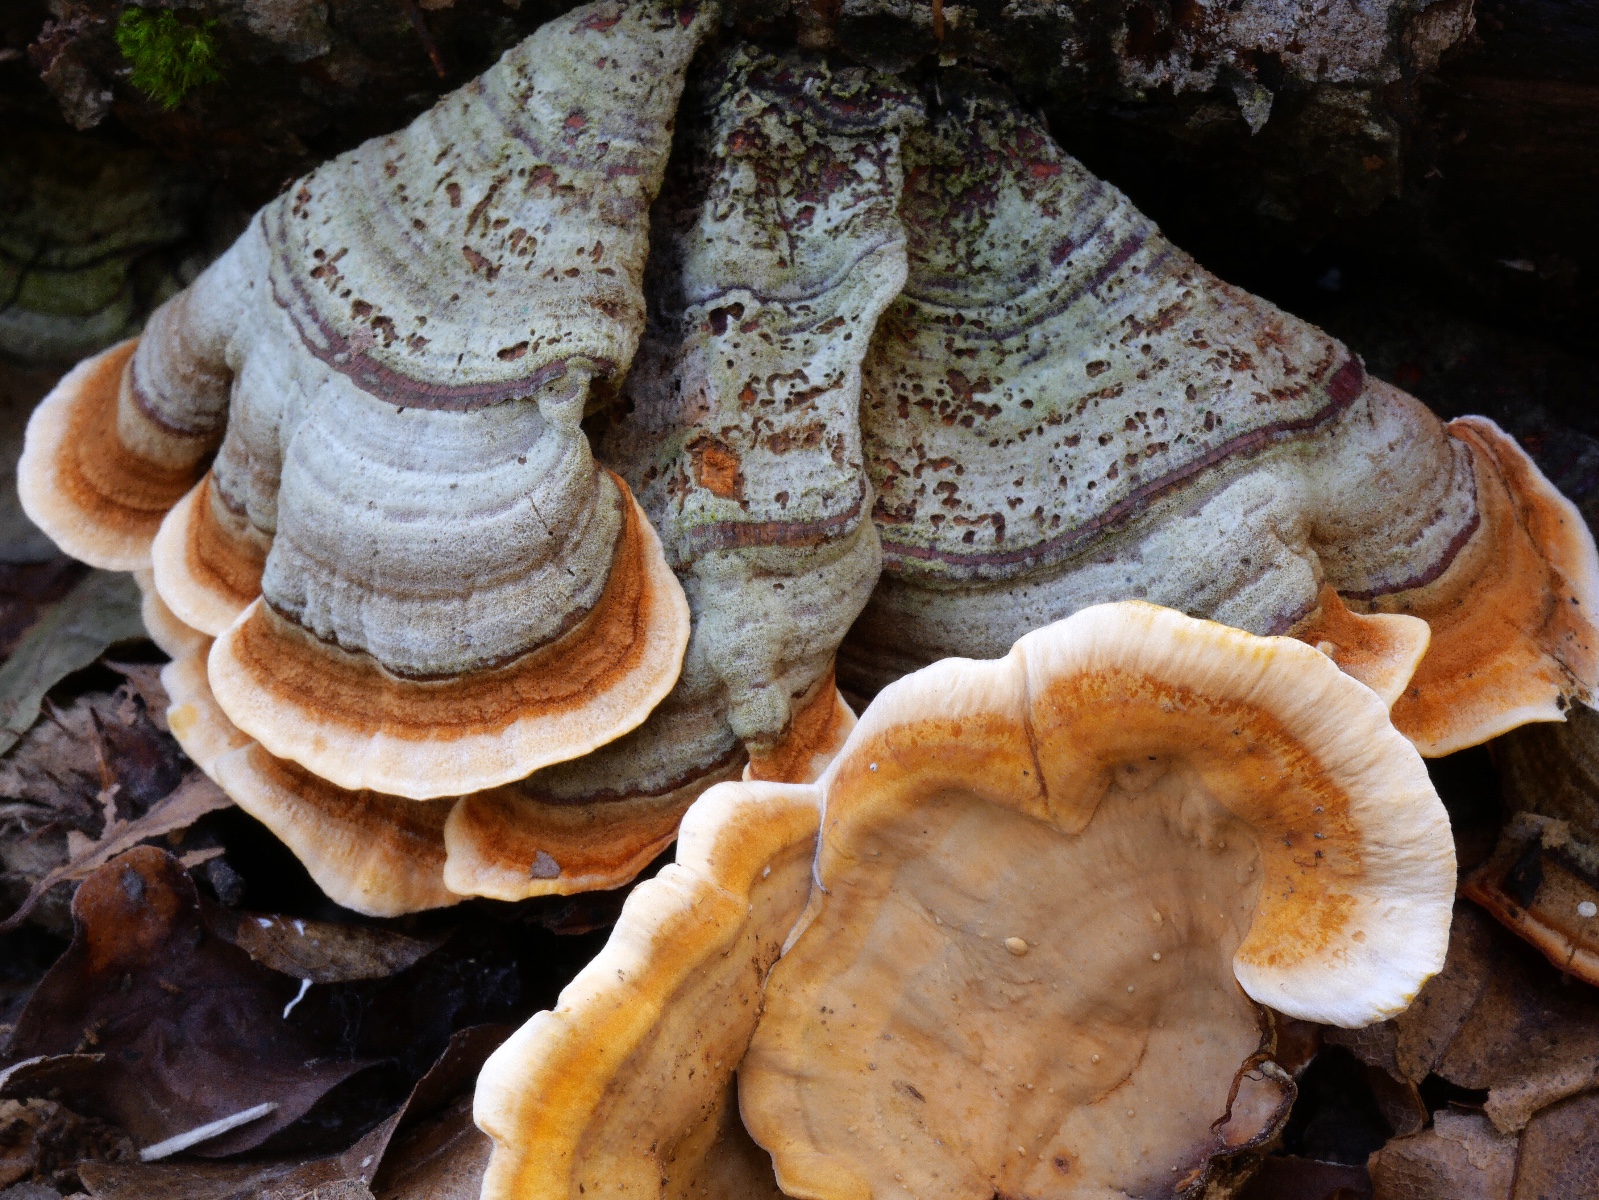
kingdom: Fungi
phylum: Basidiomycota
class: Agaricomycetes
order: Russulales
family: Stereaceae
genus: Stereum
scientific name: Stereum subtomentosum
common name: smuk lædersvamp
